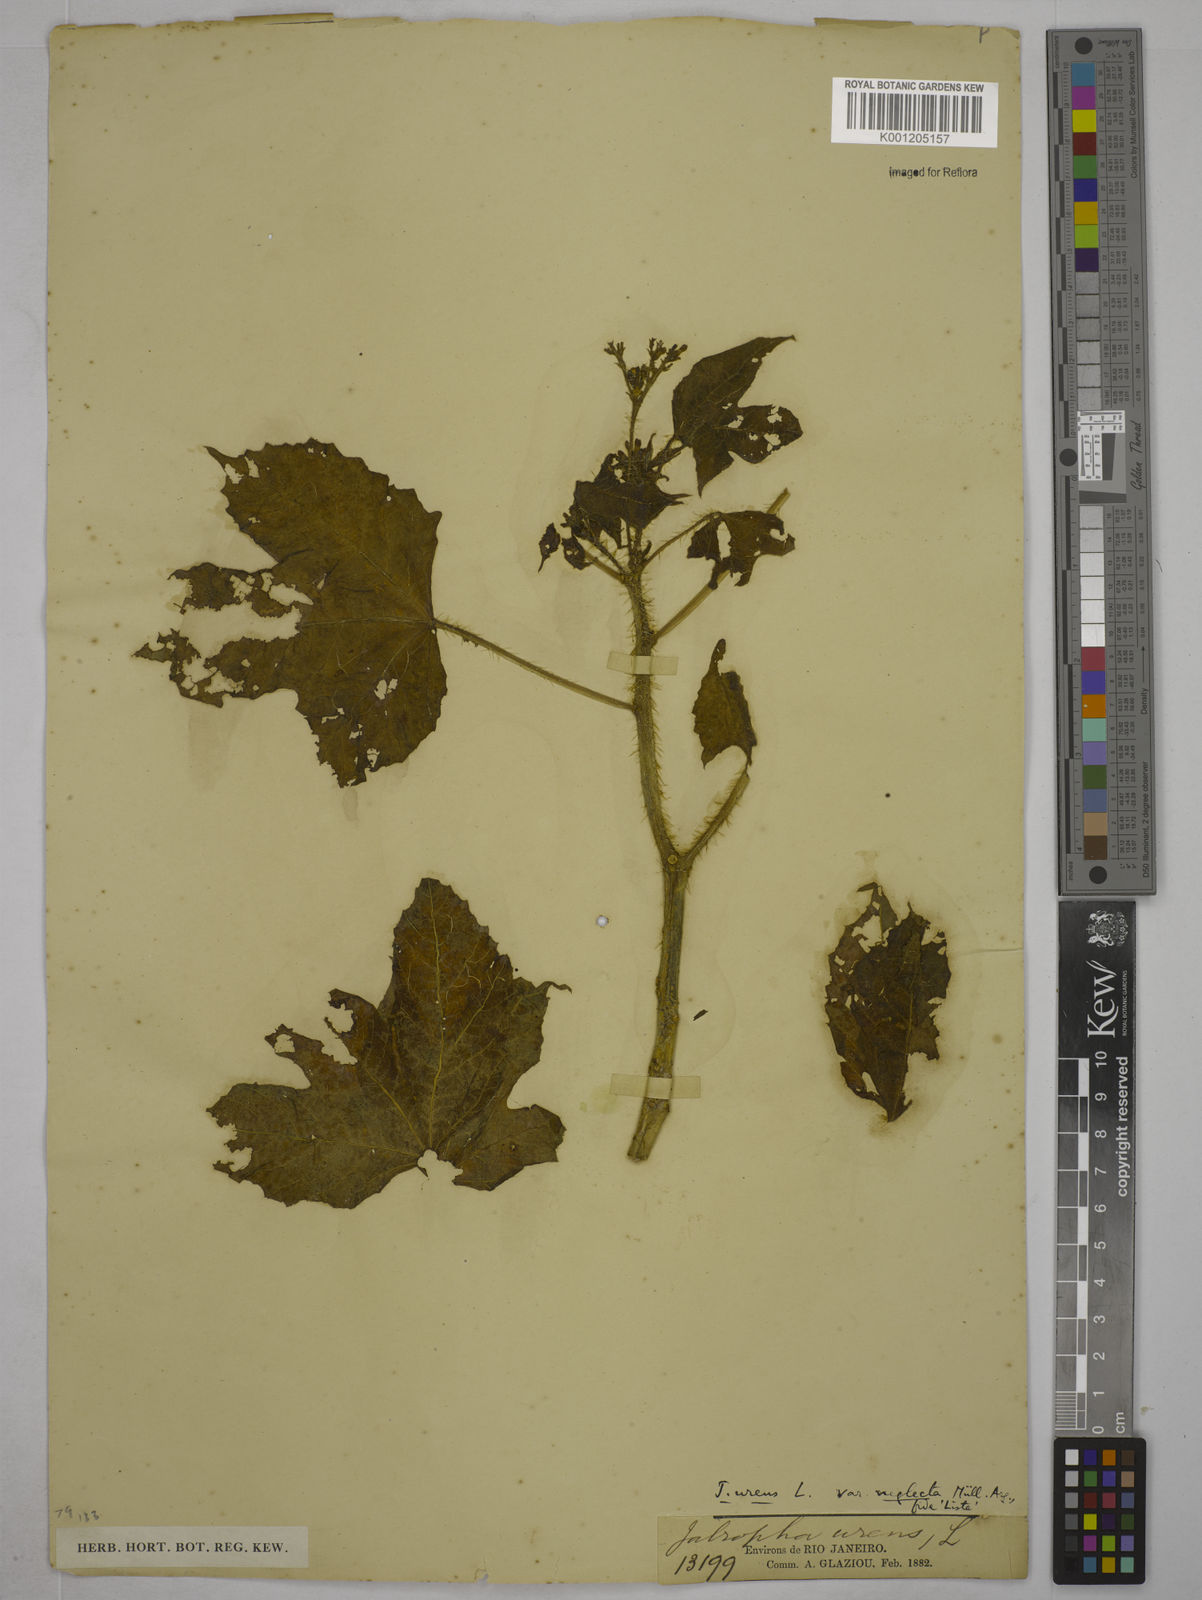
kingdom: Plantae
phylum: Tracheophyta
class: Magnoliopsida
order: Malpighiales
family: Euphorbiaceae
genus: Cnidoscolus
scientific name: Cnidoscolus neglectus
